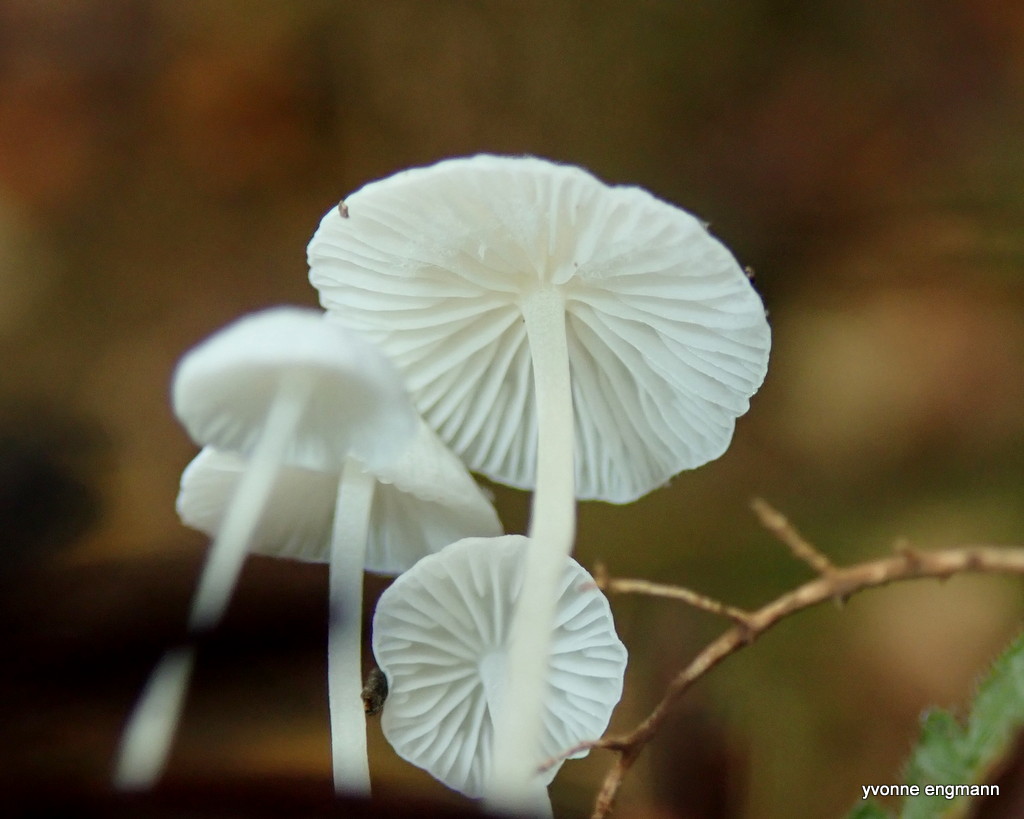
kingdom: Fungi
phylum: Basidiomycota
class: Agaricomycetes
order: Agaricales
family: Mycenaceae
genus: Hemimycena
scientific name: Hemimycena
